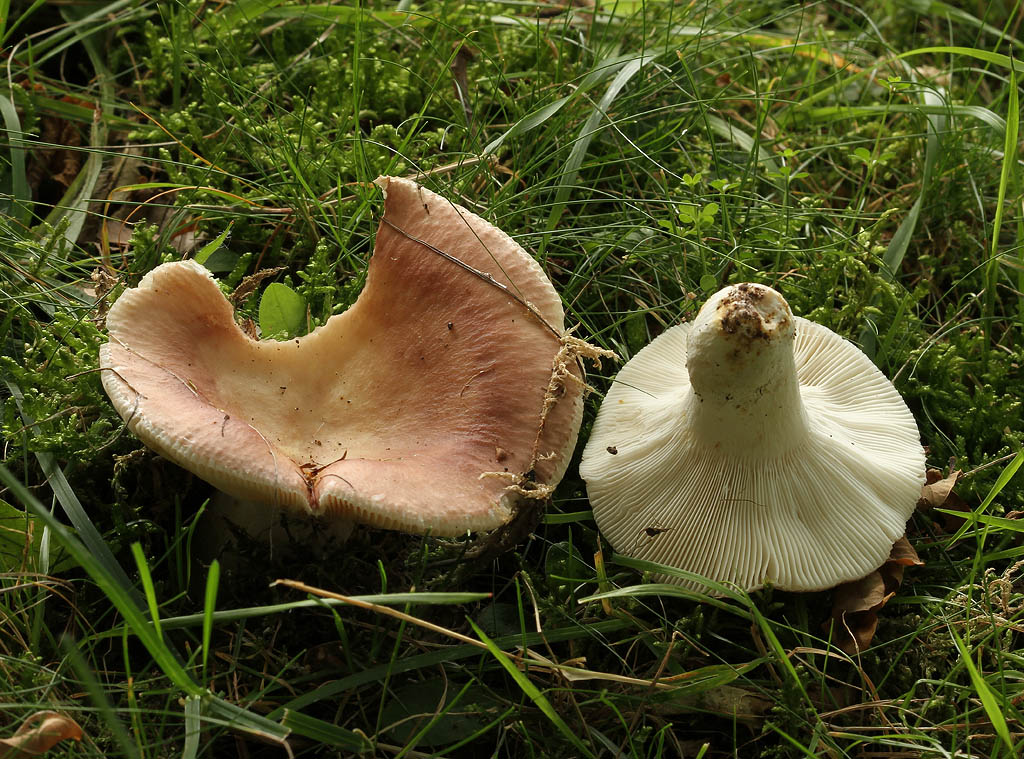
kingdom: Fungi
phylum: Basidiomycota
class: Agaricomycetes
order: Russulales
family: Russulaceae
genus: Russula
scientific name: Russula vesca
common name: spiselig skørhat
